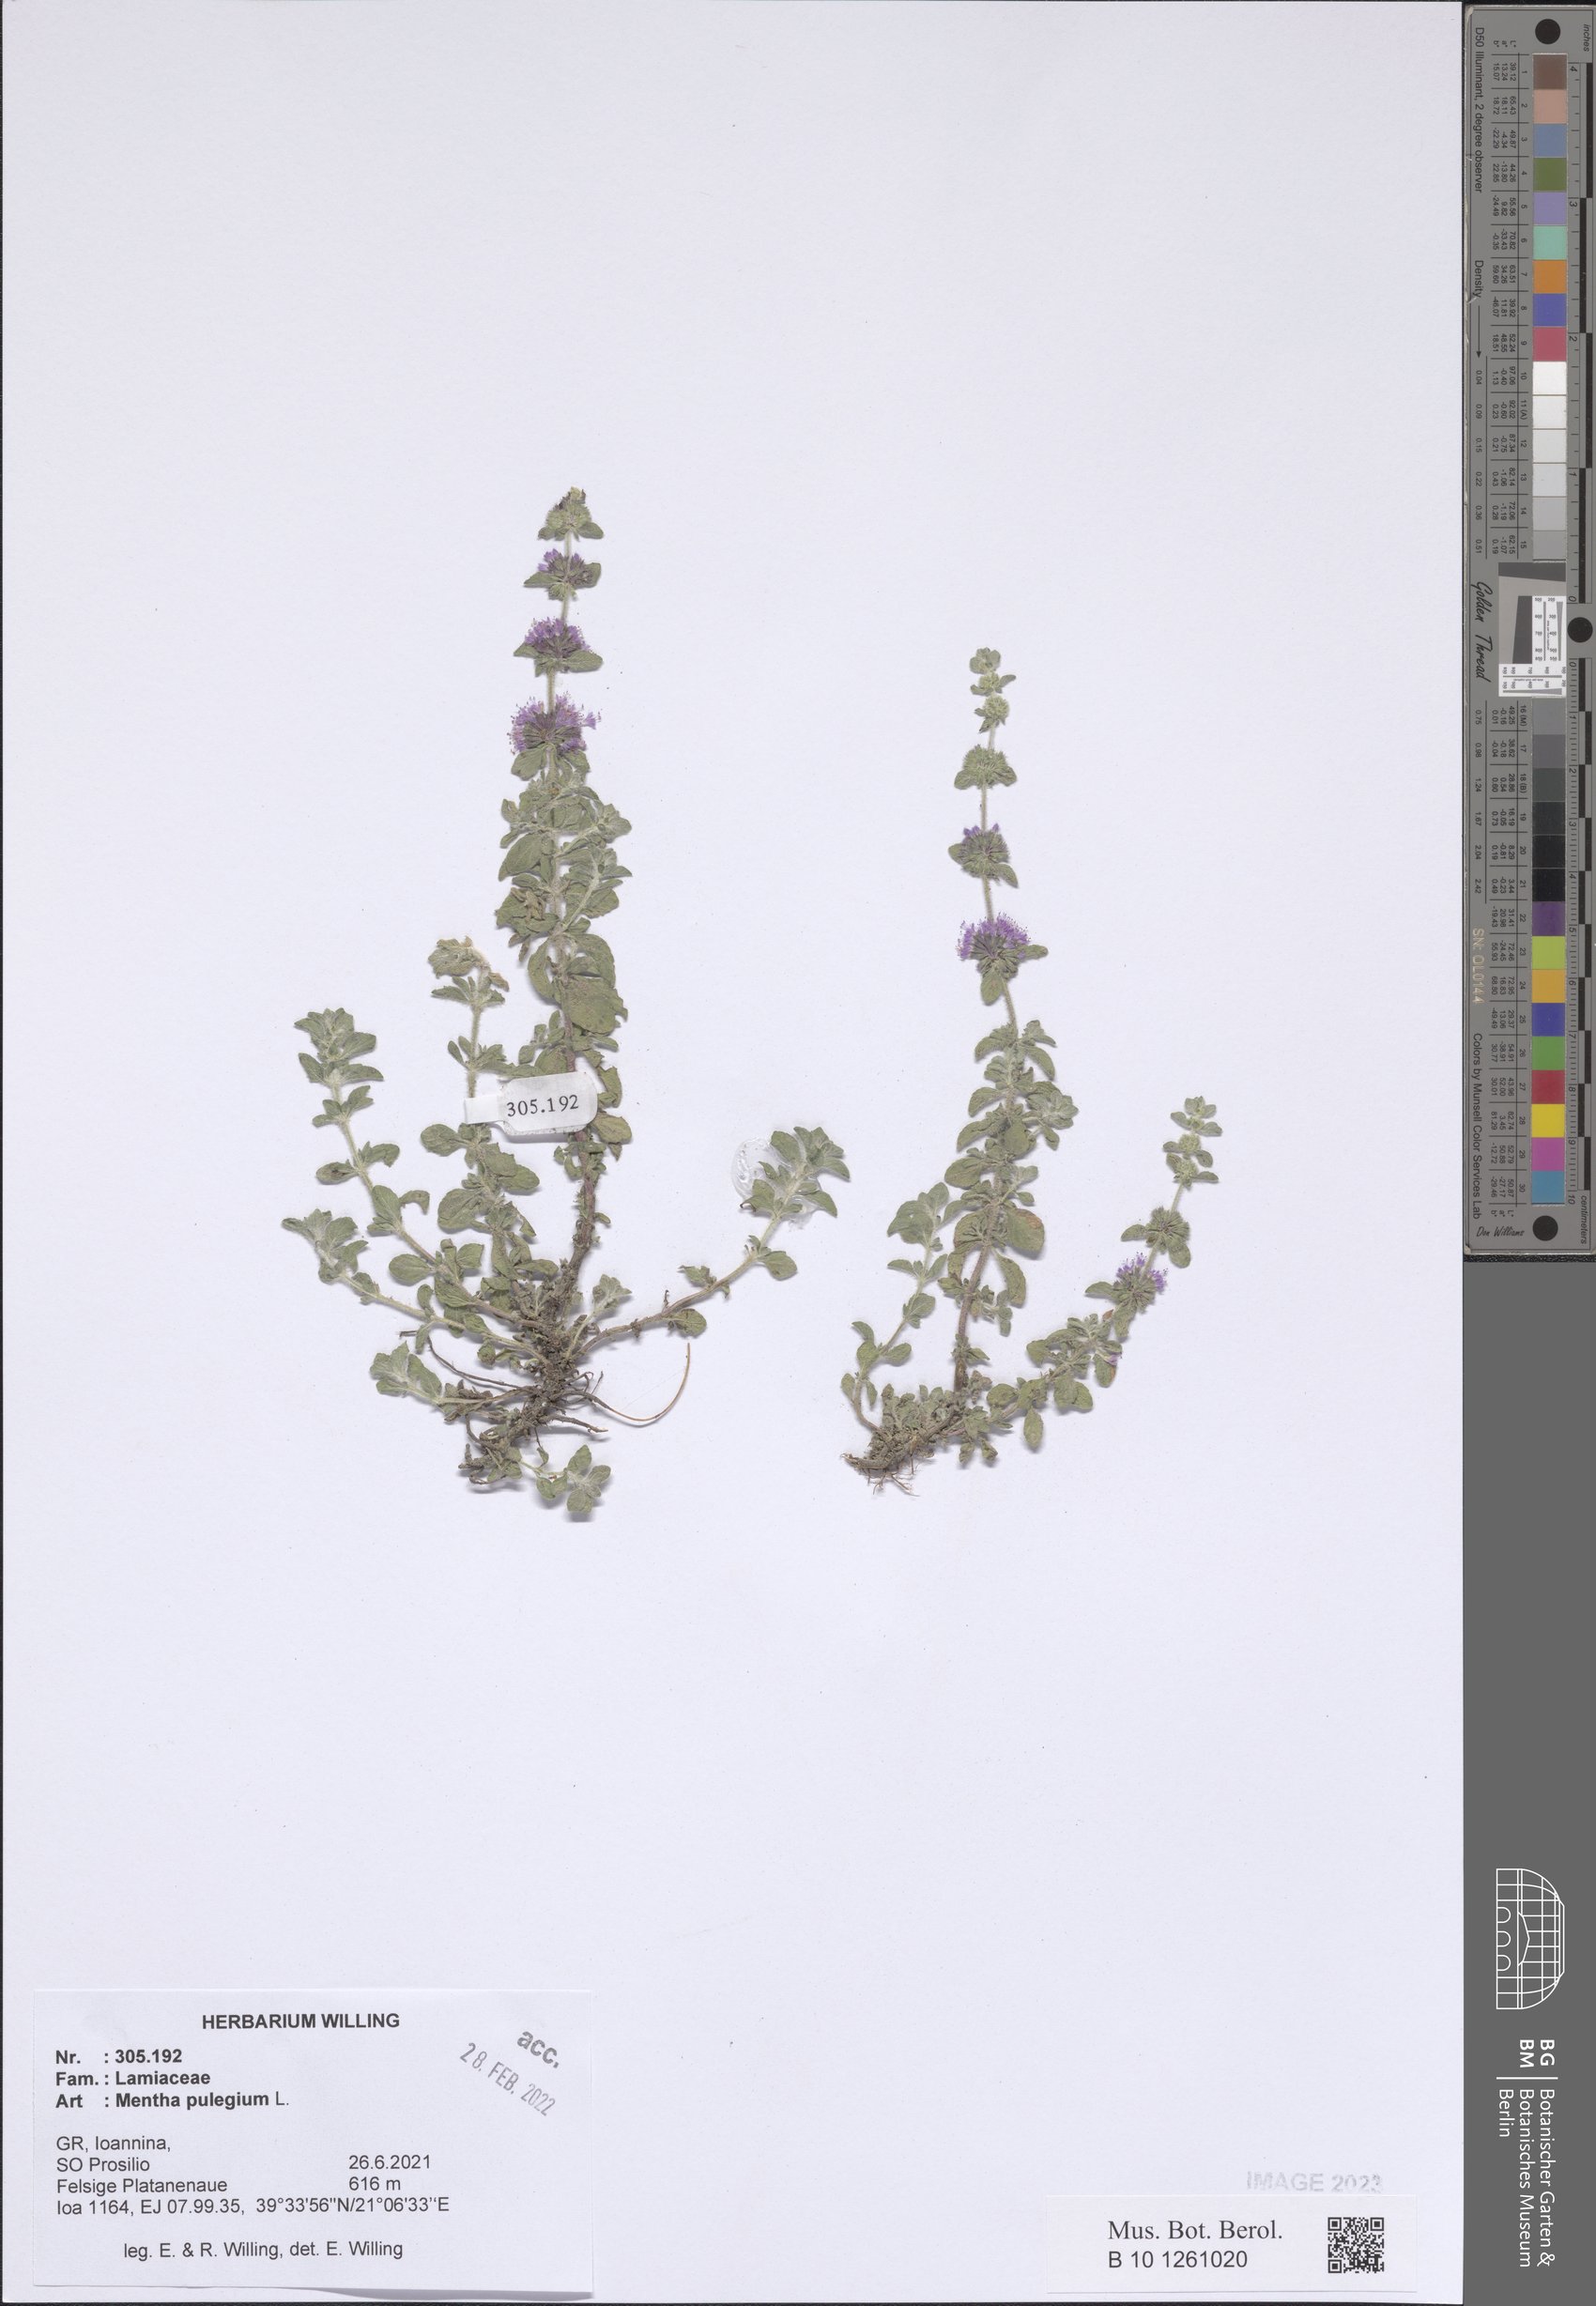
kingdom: Plantae
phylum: Tracheophyta
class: Magnoliopsida
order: Lamiales
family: Lamiaceae
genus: Mentha
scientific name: Mentha pulegium
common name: Pennyroyal
